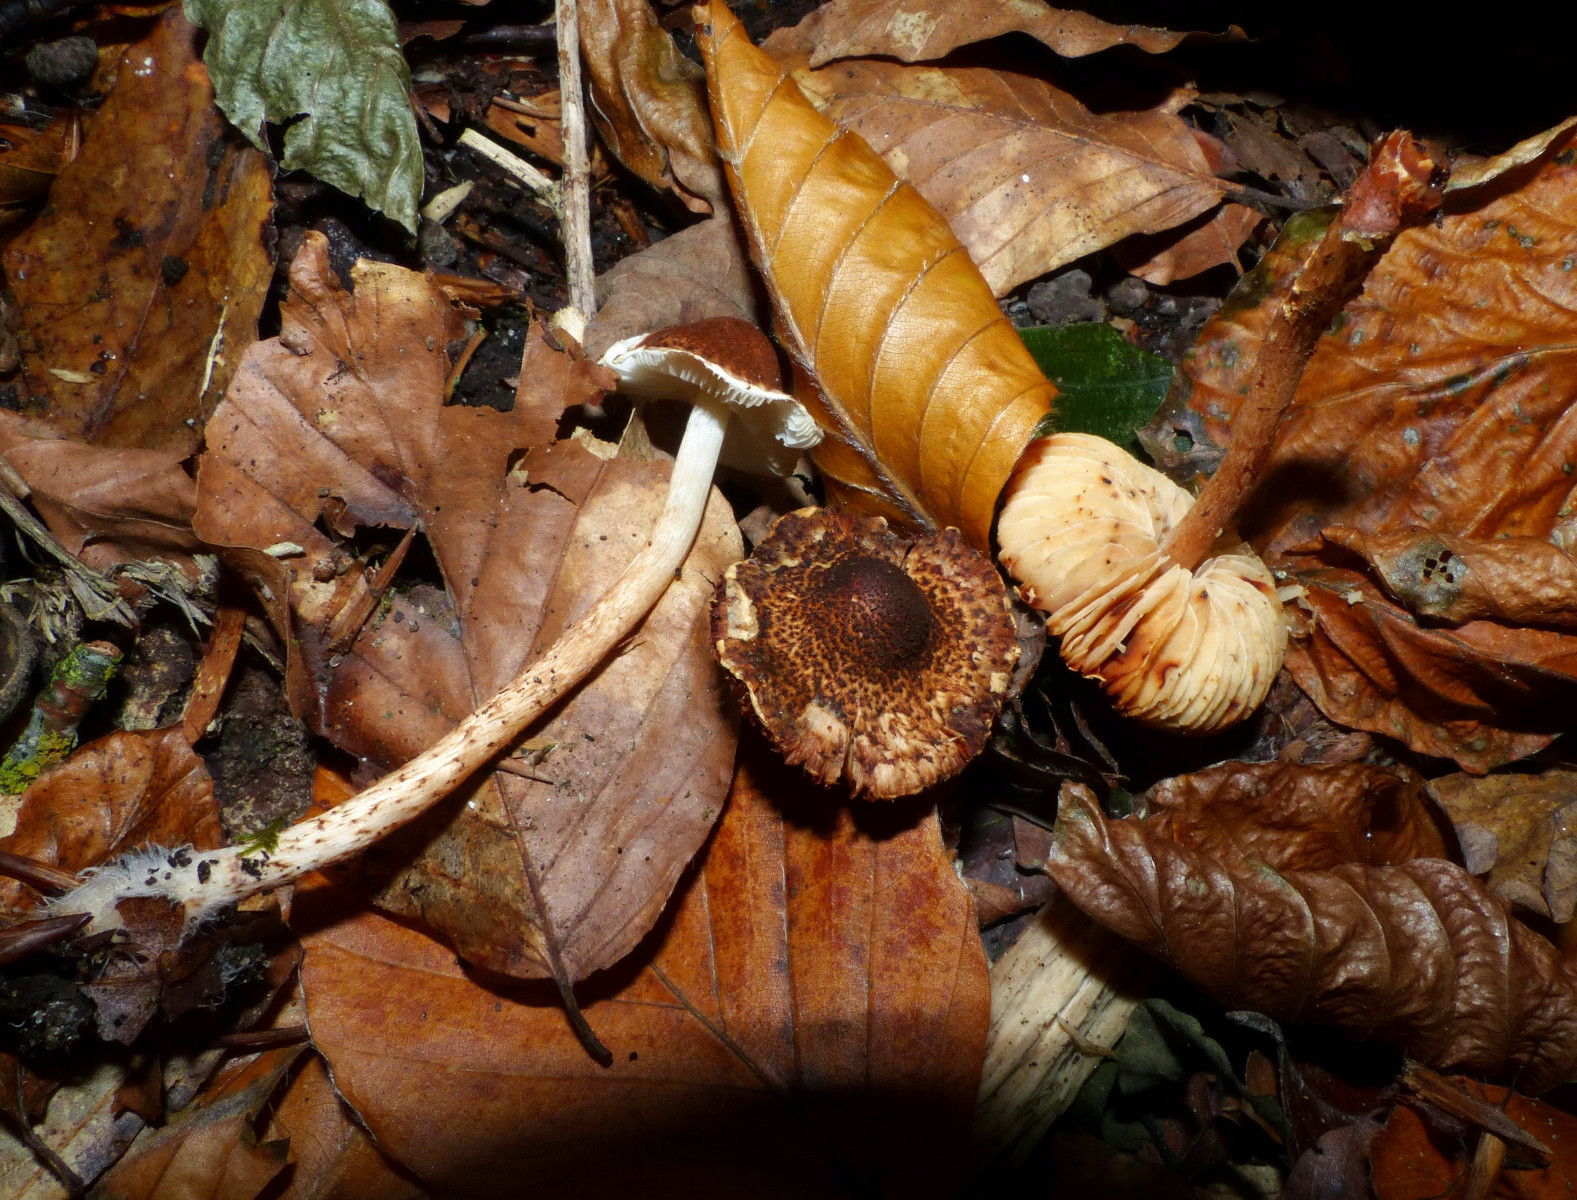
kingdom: Fungi
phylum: Basidiomycota
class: Agaricomycetes
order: Agaricales
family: Agaricaceae
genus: Lepiota
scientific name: Lepiota castanea
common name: kastaniebrun parasolhat
